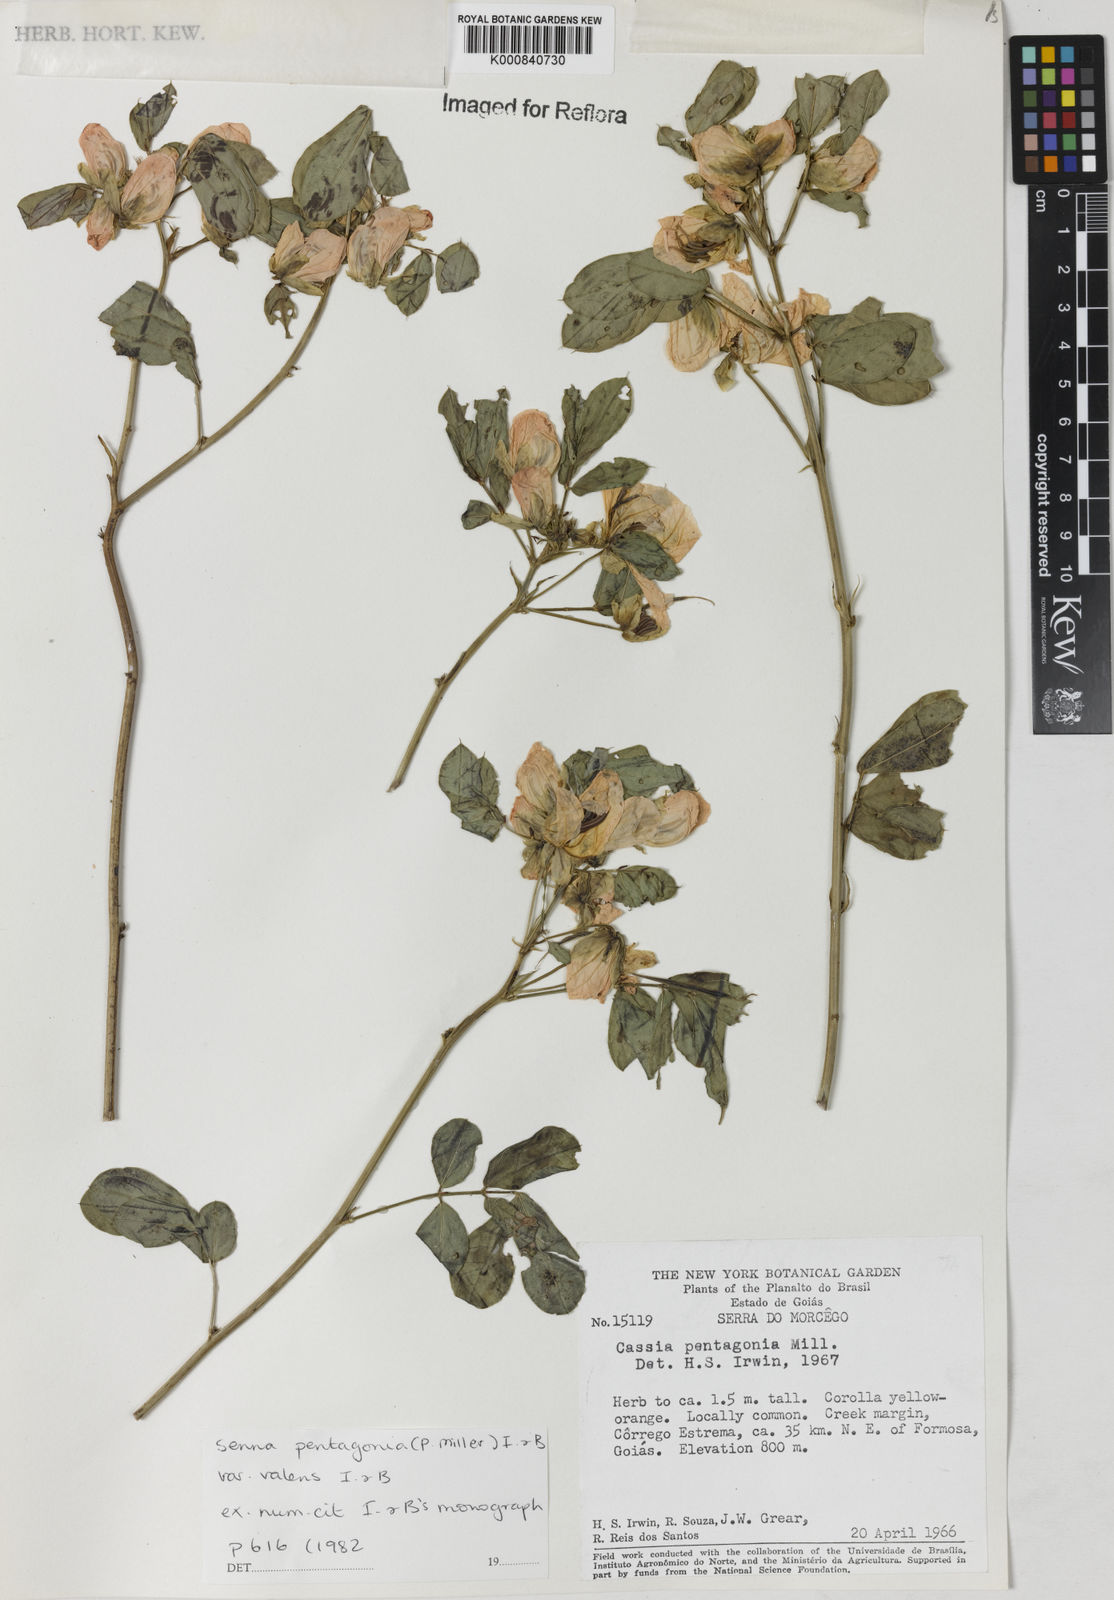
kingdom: Plantae
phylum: Tracheophyta
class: Magnoliopsida
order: Fabales
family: Fabaceae
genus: Senna
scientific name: Senna pentagonia
